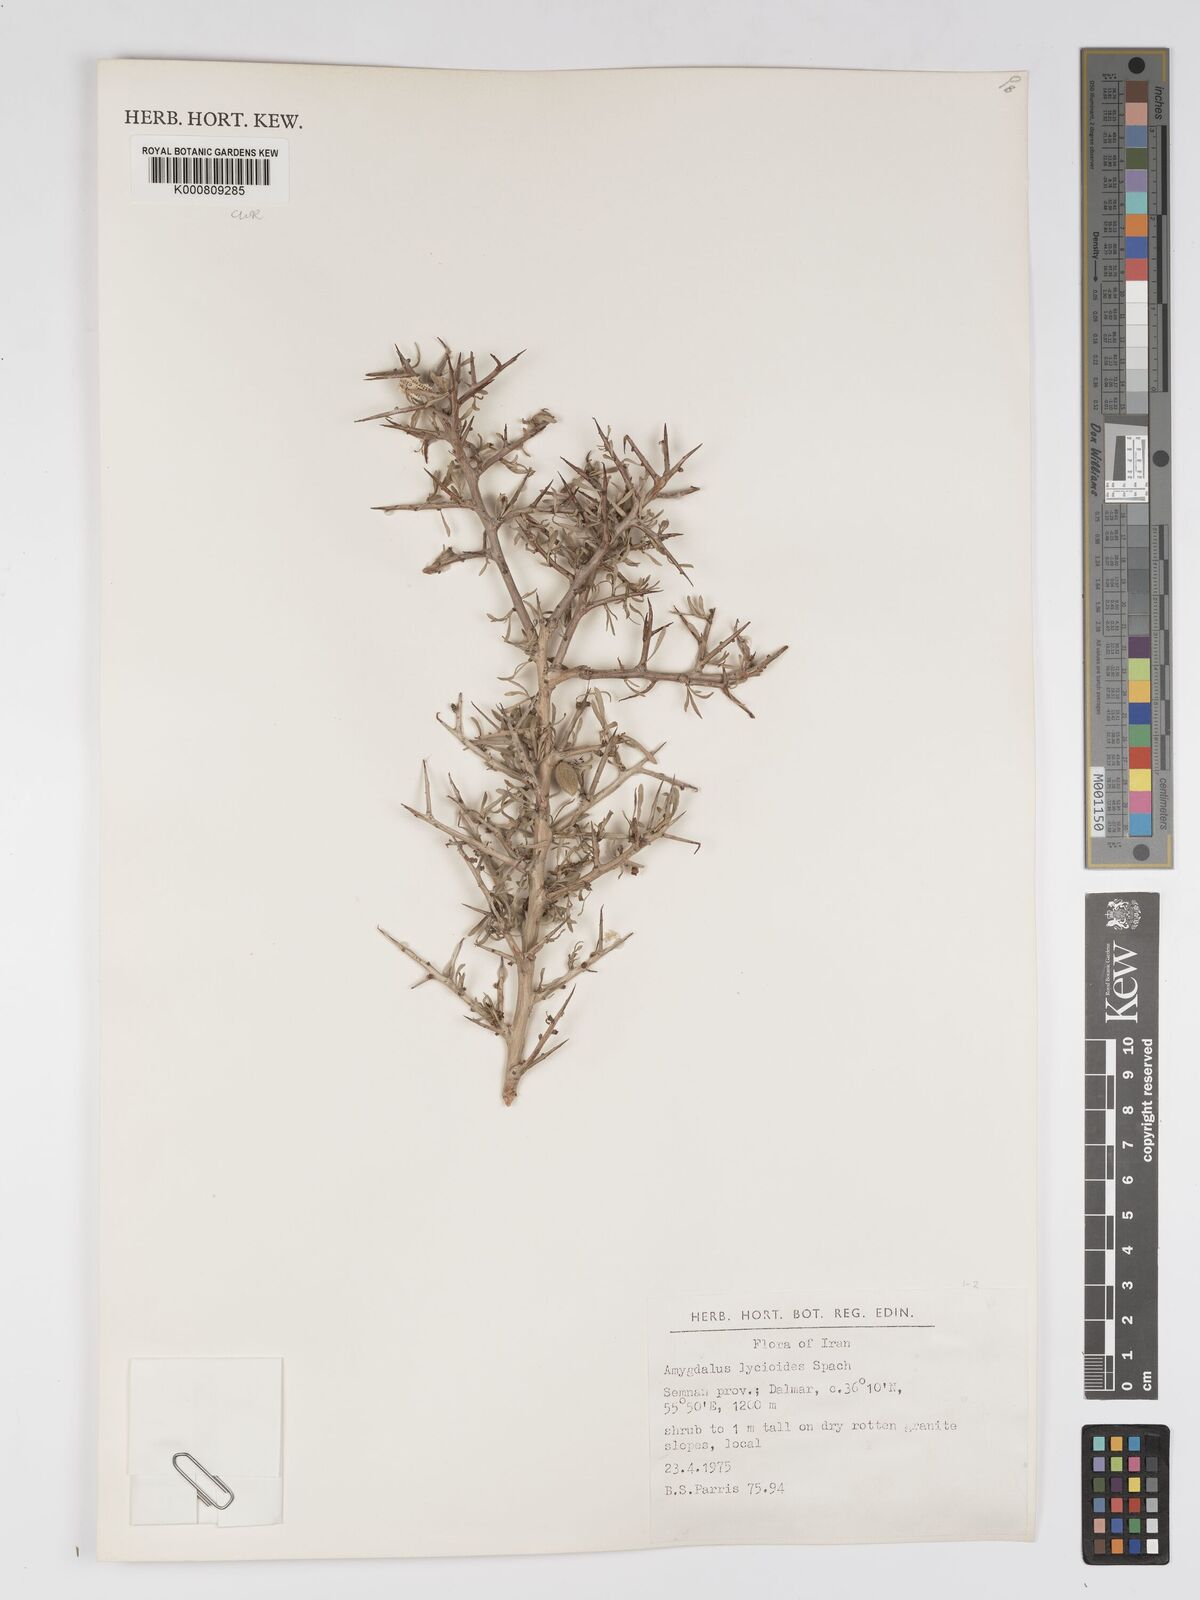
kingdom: Plantae
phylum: Tracheophyta
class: Magnoliopsida
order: Rosales
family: Rosaceae
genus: Prunus
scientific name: Prunus lycioides
